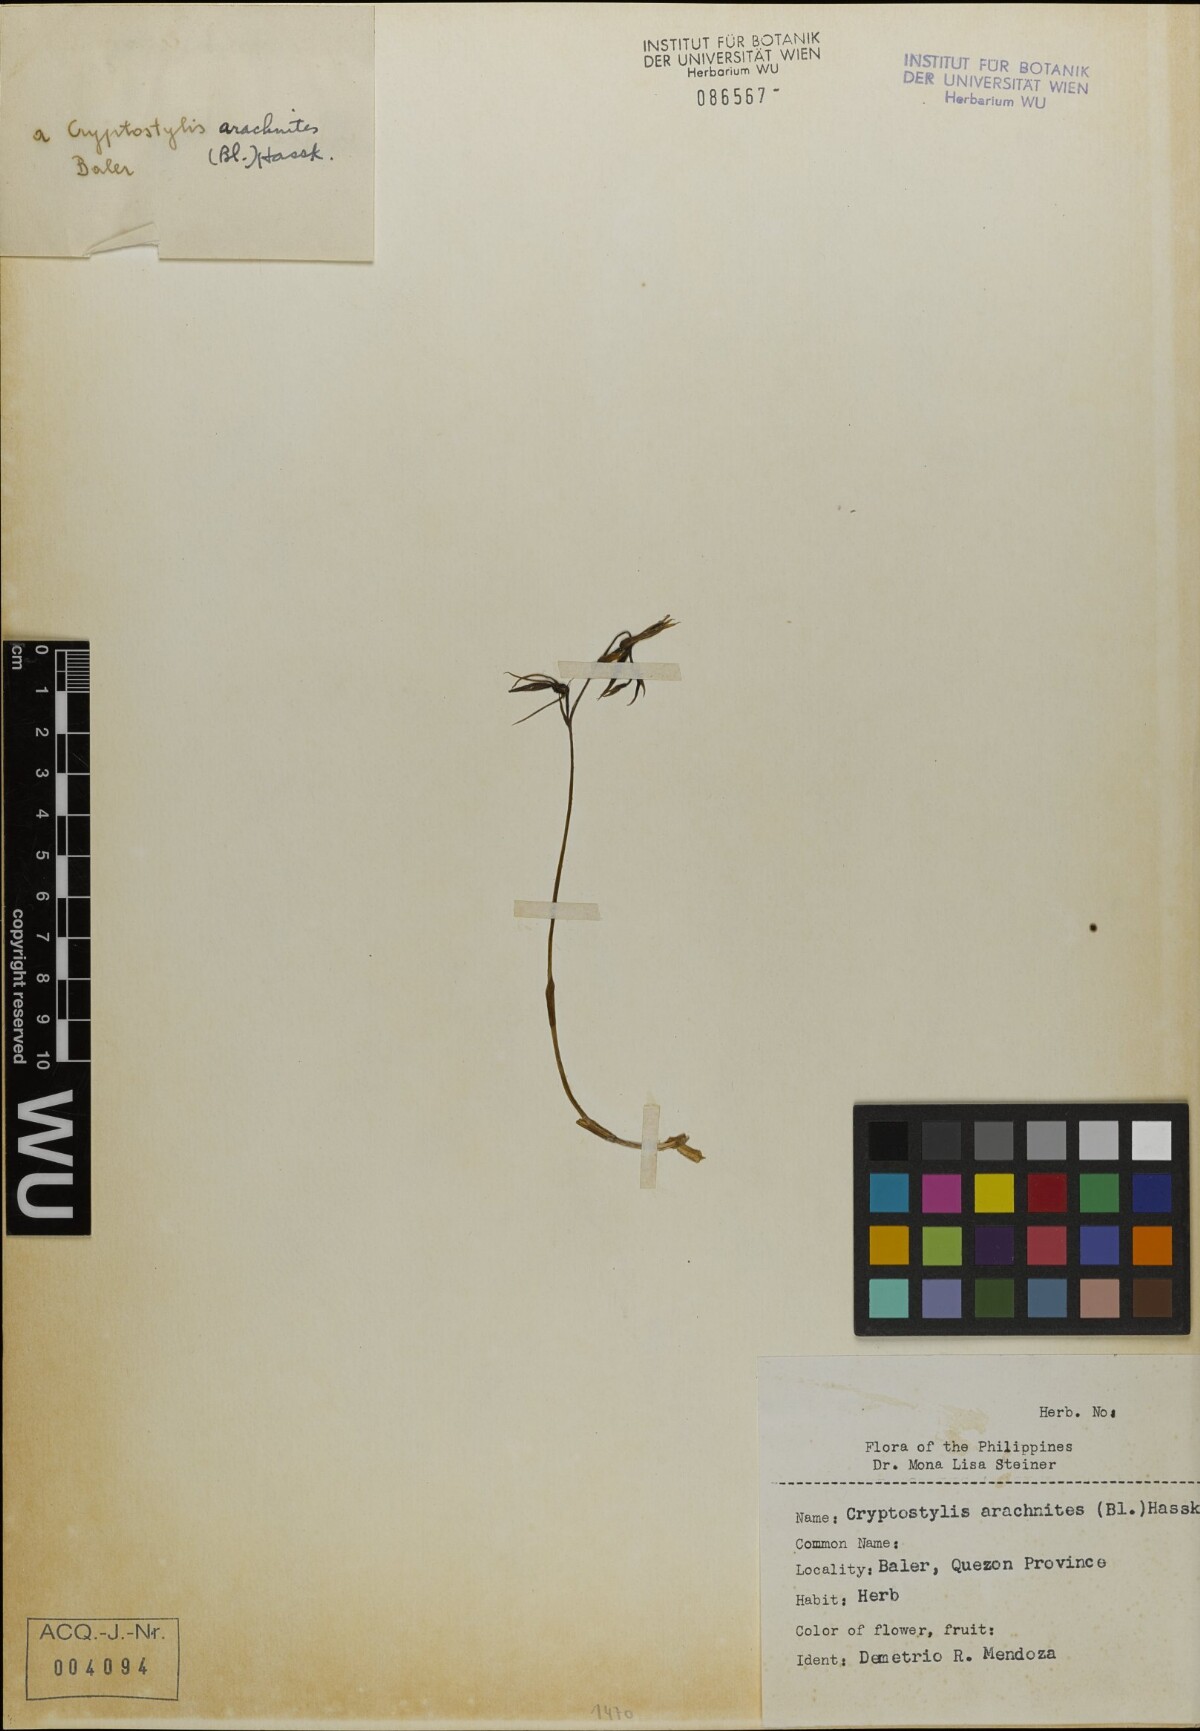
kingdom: Plantae
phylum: Tracheophyta
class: Liliopsida
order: Asparagales
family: Orchidaceae
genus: Cryptostylis
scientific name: Cryptostylis arachnites
